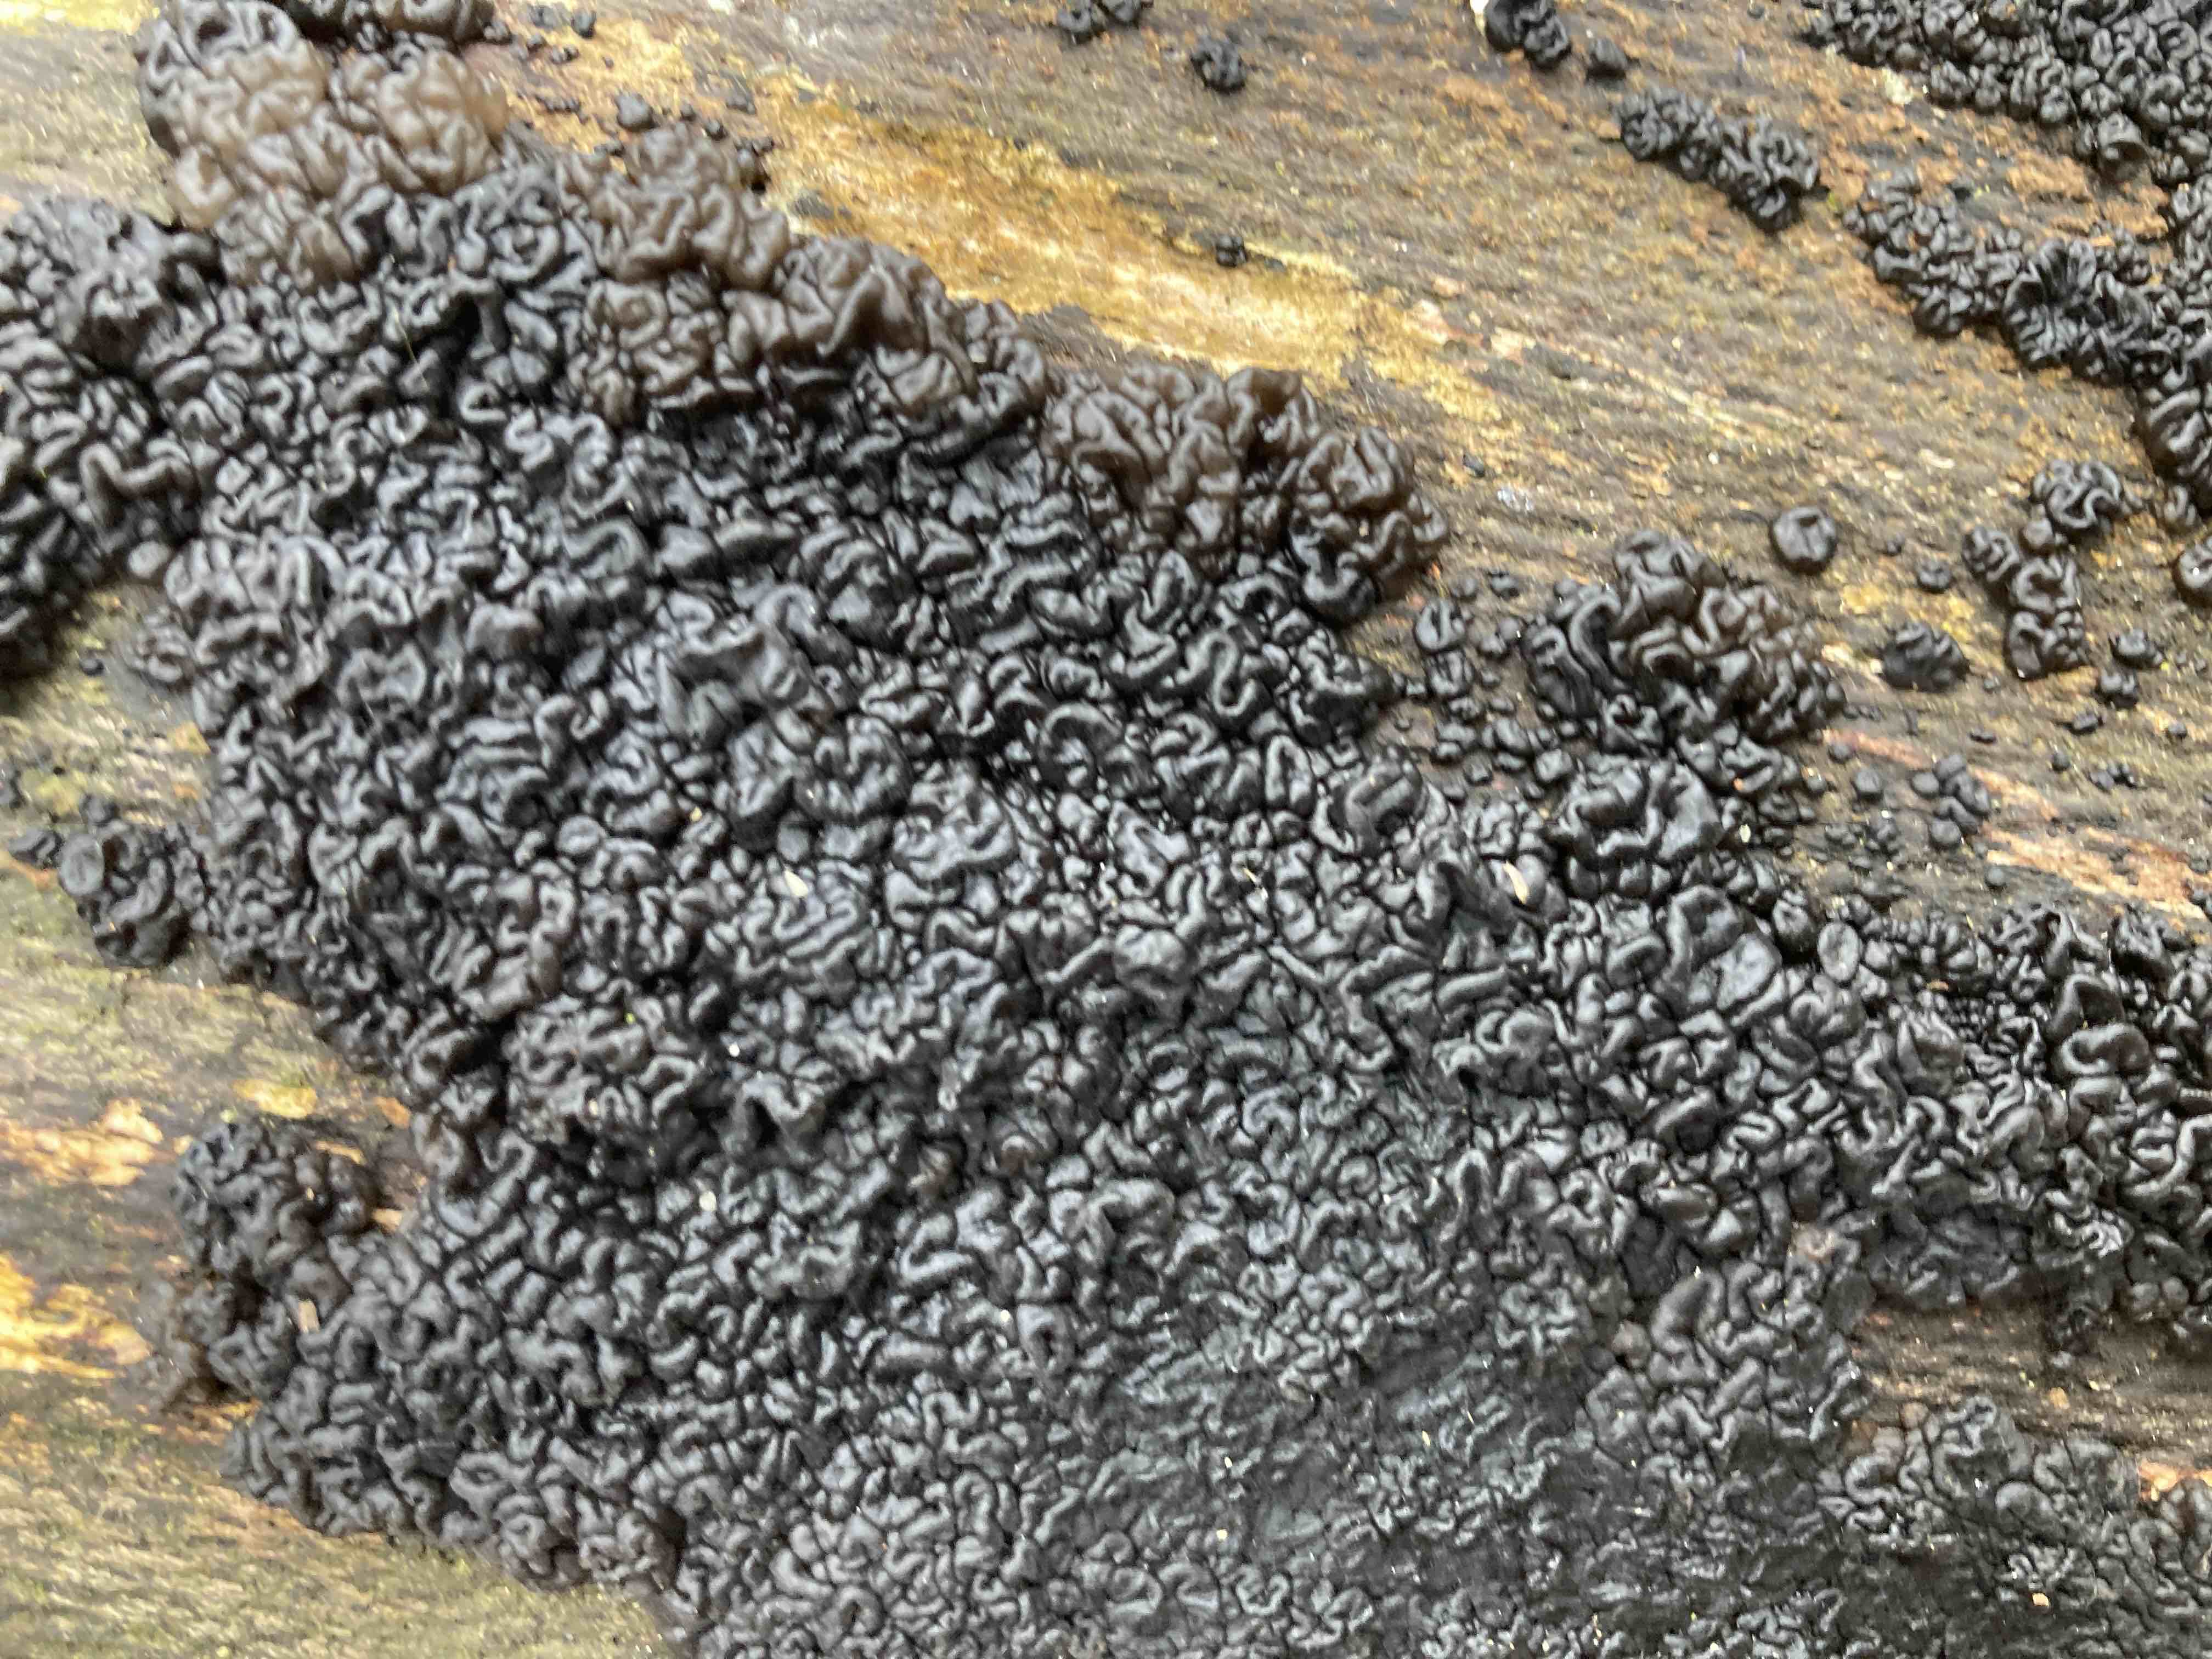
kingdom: Fungi
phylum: Basidiomycota
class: Agaricomycetes
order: Auriculariales
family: Auriculariaceae
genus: Exidia
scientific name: Exidia nigricans
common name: almindelig bævretop
